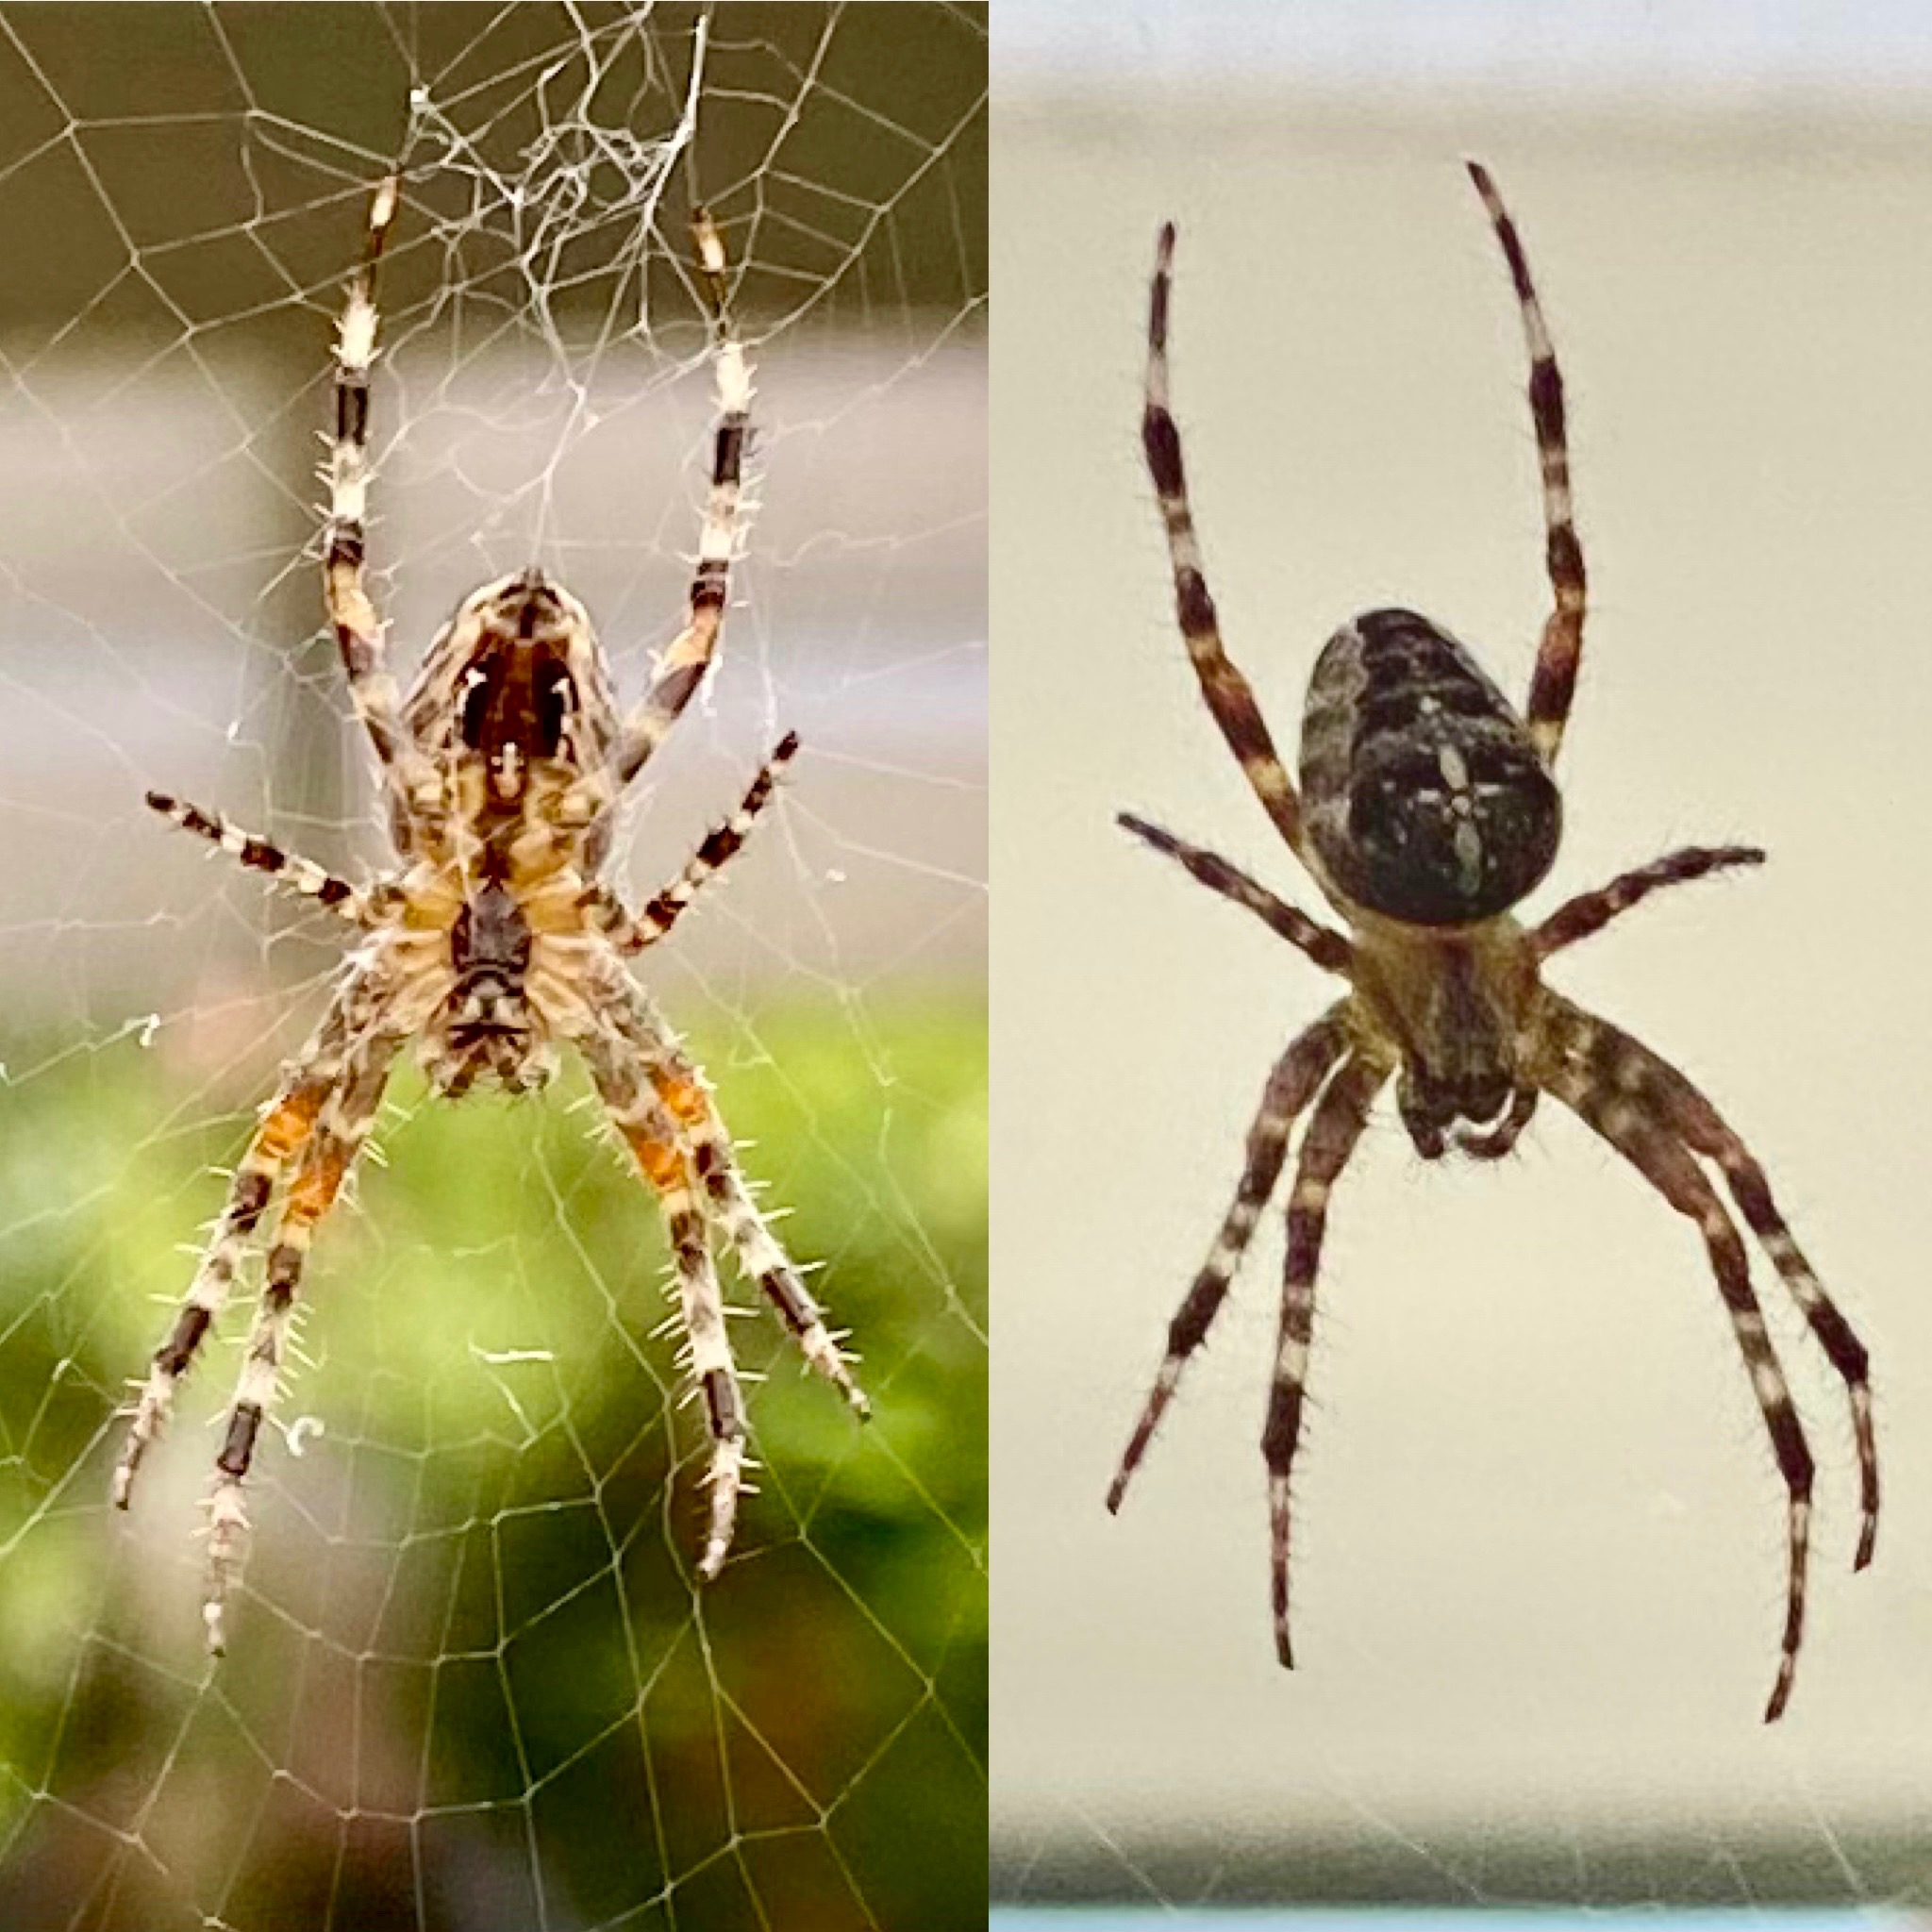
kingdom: Animalia
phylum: Arthropoda
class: Arachnida
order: Araneae
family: Araneidae
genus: Araneus
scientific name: Araneus diadematus
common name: Korsedderkop
